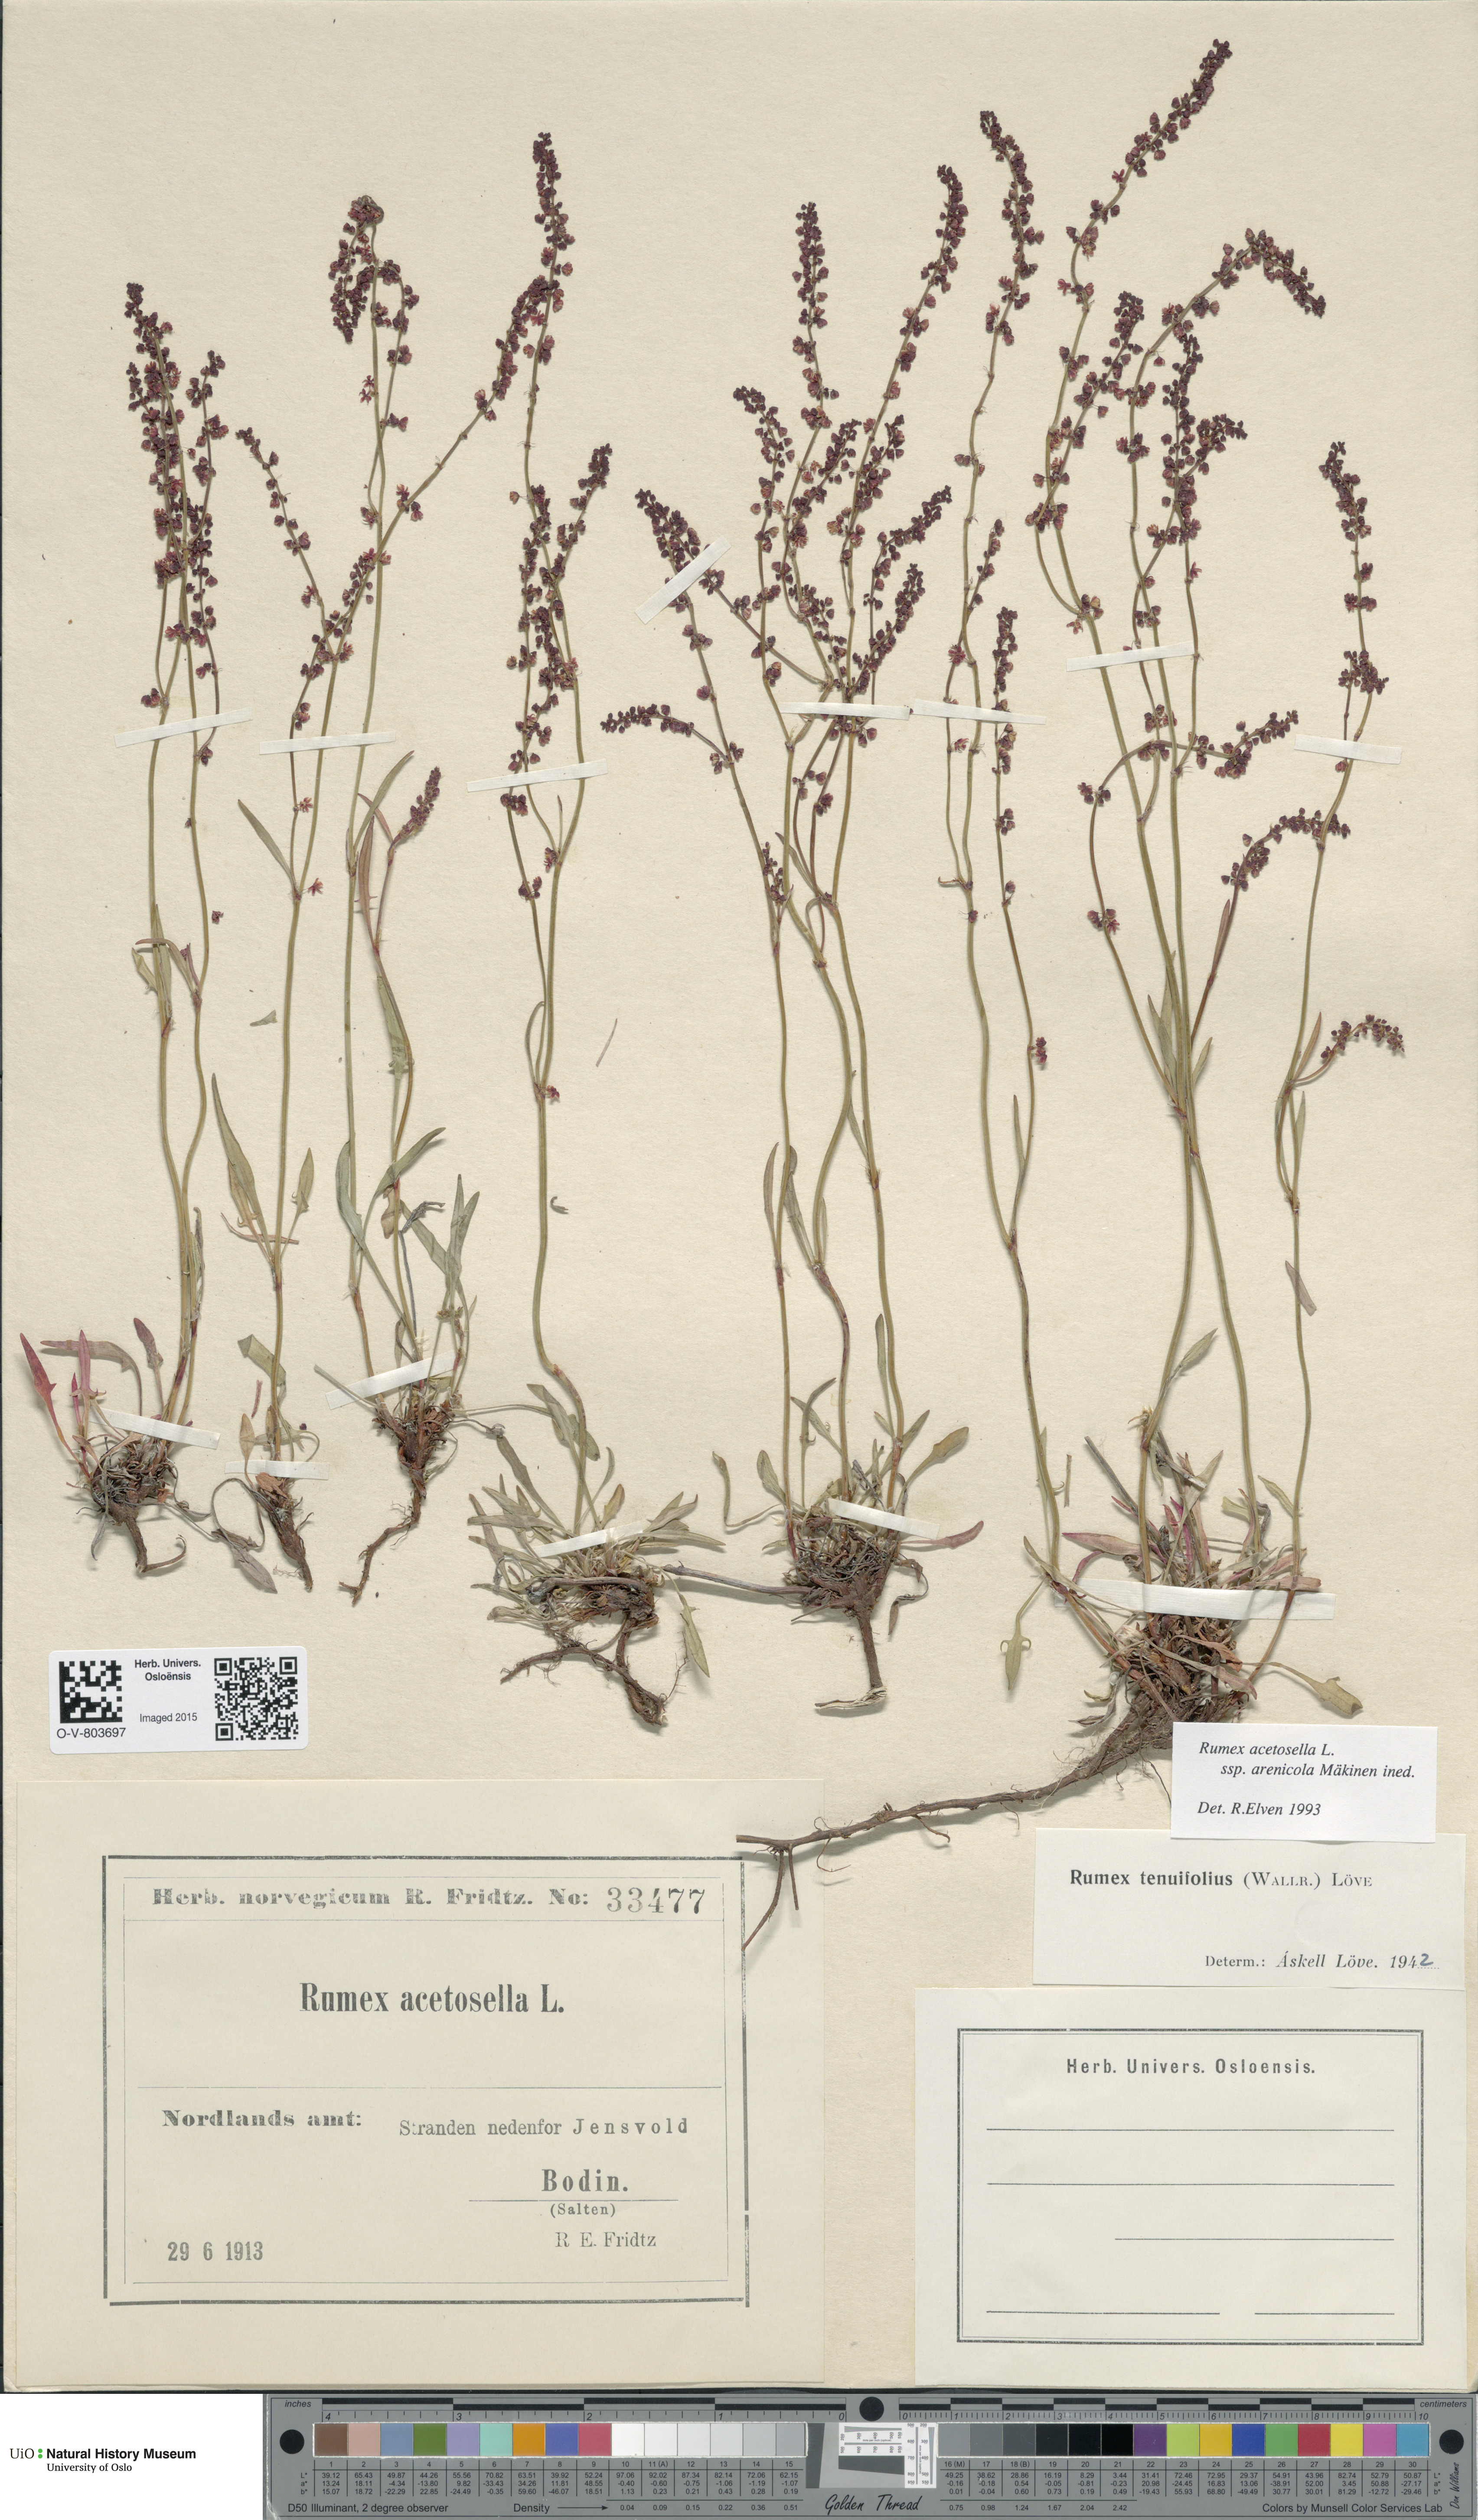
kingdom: Plantae
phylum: Tracheophyta
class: Magnoliopsida
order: Caryophyllales
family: Polygonaceae
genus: Rumex
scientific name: Rumex acetosella
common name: Common sheep sorrel
